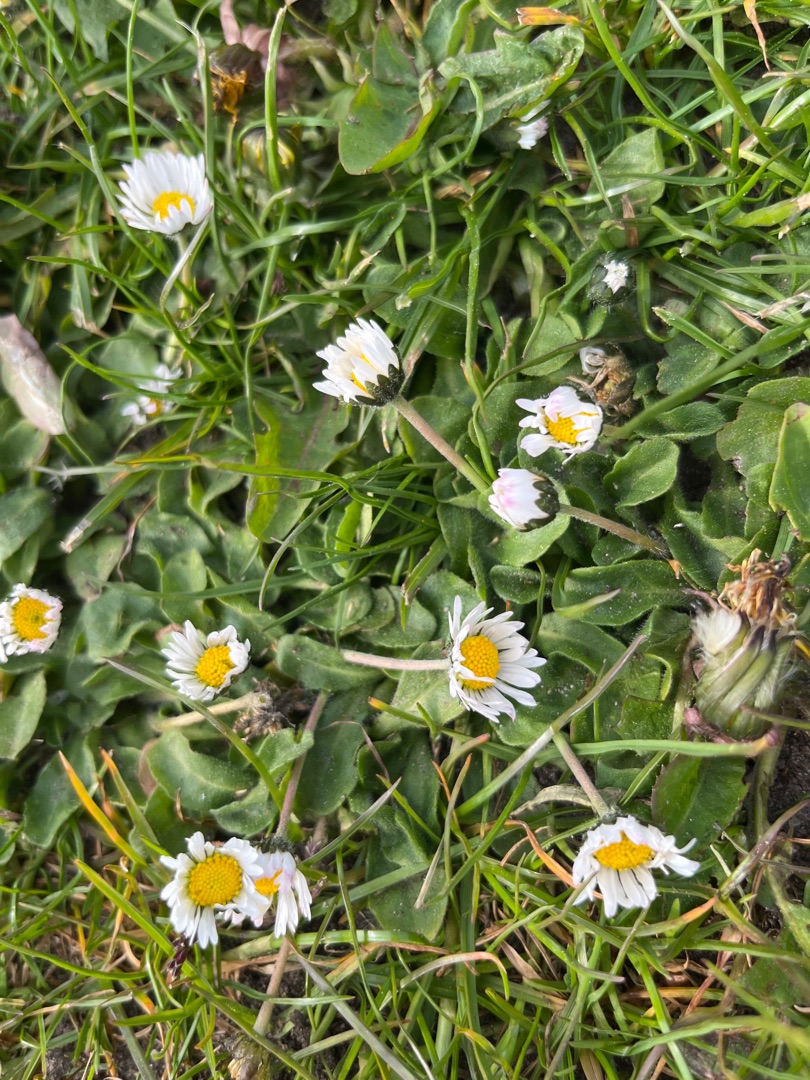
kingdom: Plantae
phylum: Tracheophyta
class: Magnoliopsida
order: Asterales
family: Asteraceae
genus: Bellis
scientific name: Bellis perennis
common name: Tusindfryd
